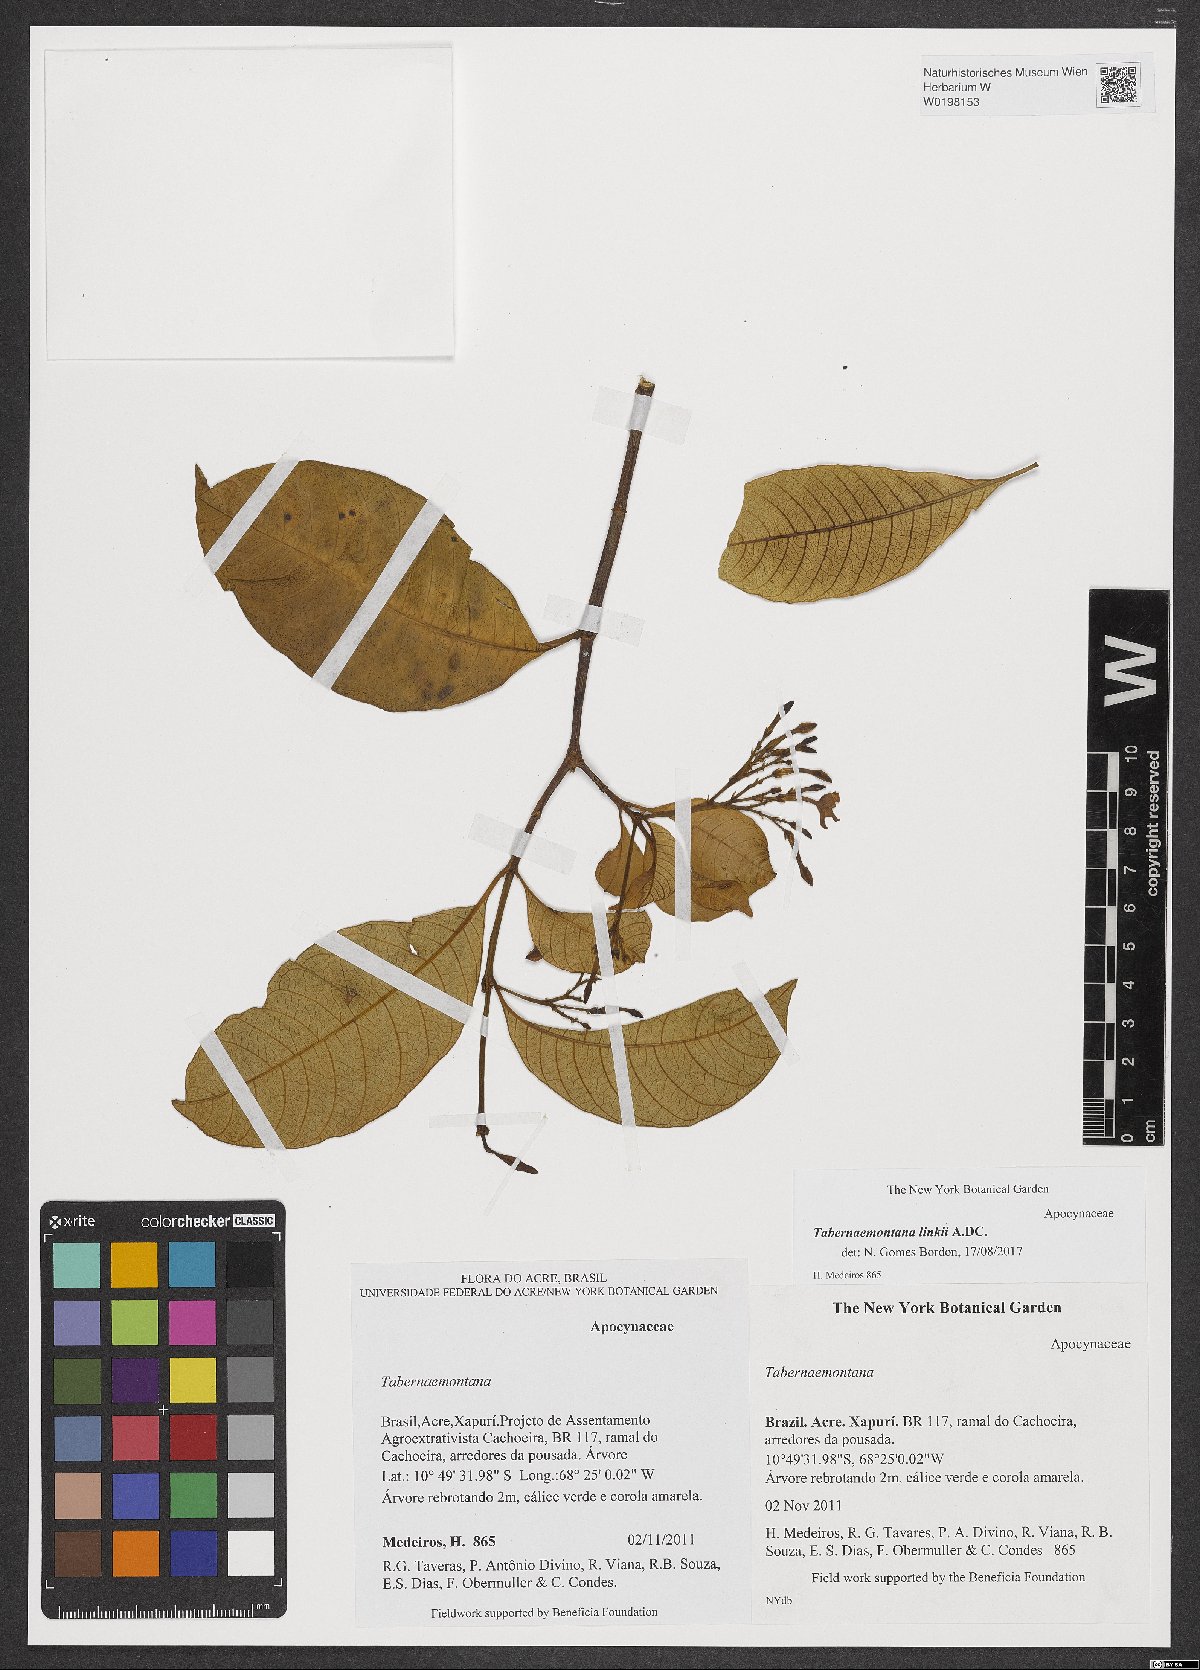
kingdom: Plantae
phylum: Tracheophyta
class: Magnoliopsida
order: Gentianales
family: Apocynaceae
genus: Tabernaemontana
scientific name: Tabernaemontana linkii
